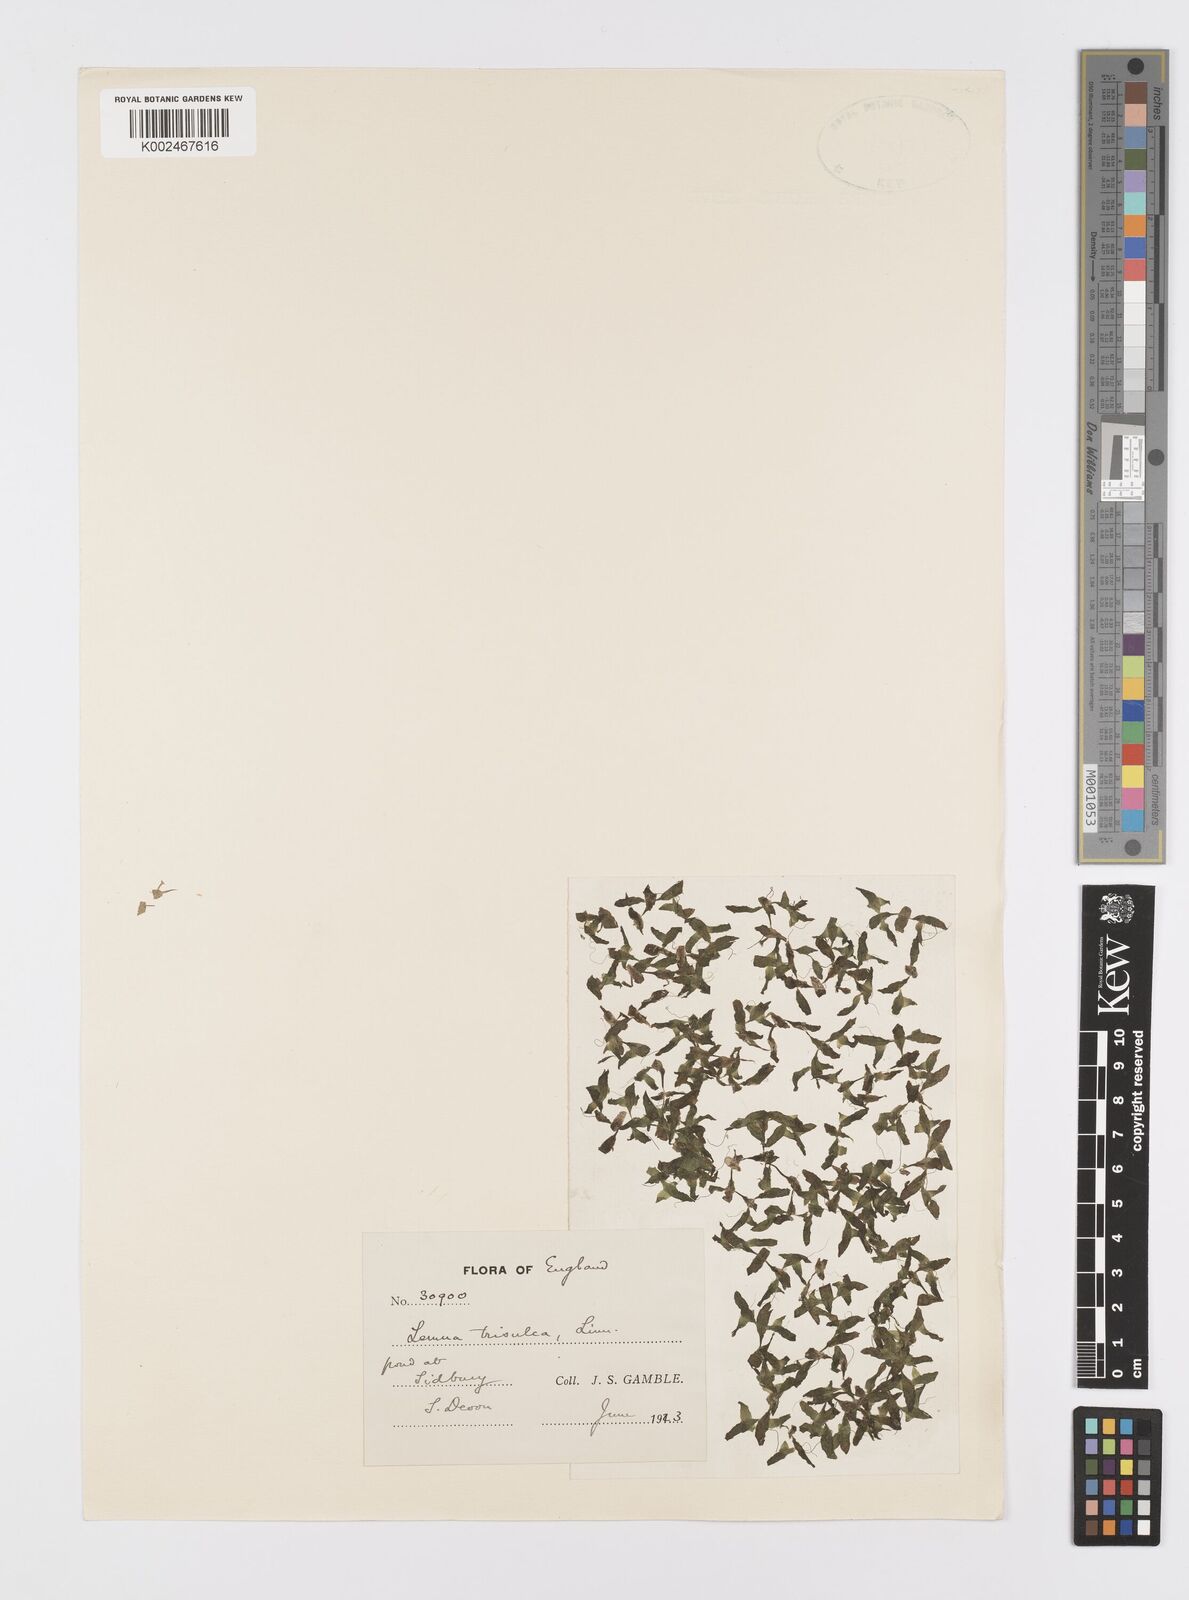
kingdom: Plantae
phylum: Tracheophyta
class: Liliopsida
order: Alismatales
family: Araceae
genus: Lemna
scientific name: Lemna trisulca
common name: Ivy-leaved duckweed
